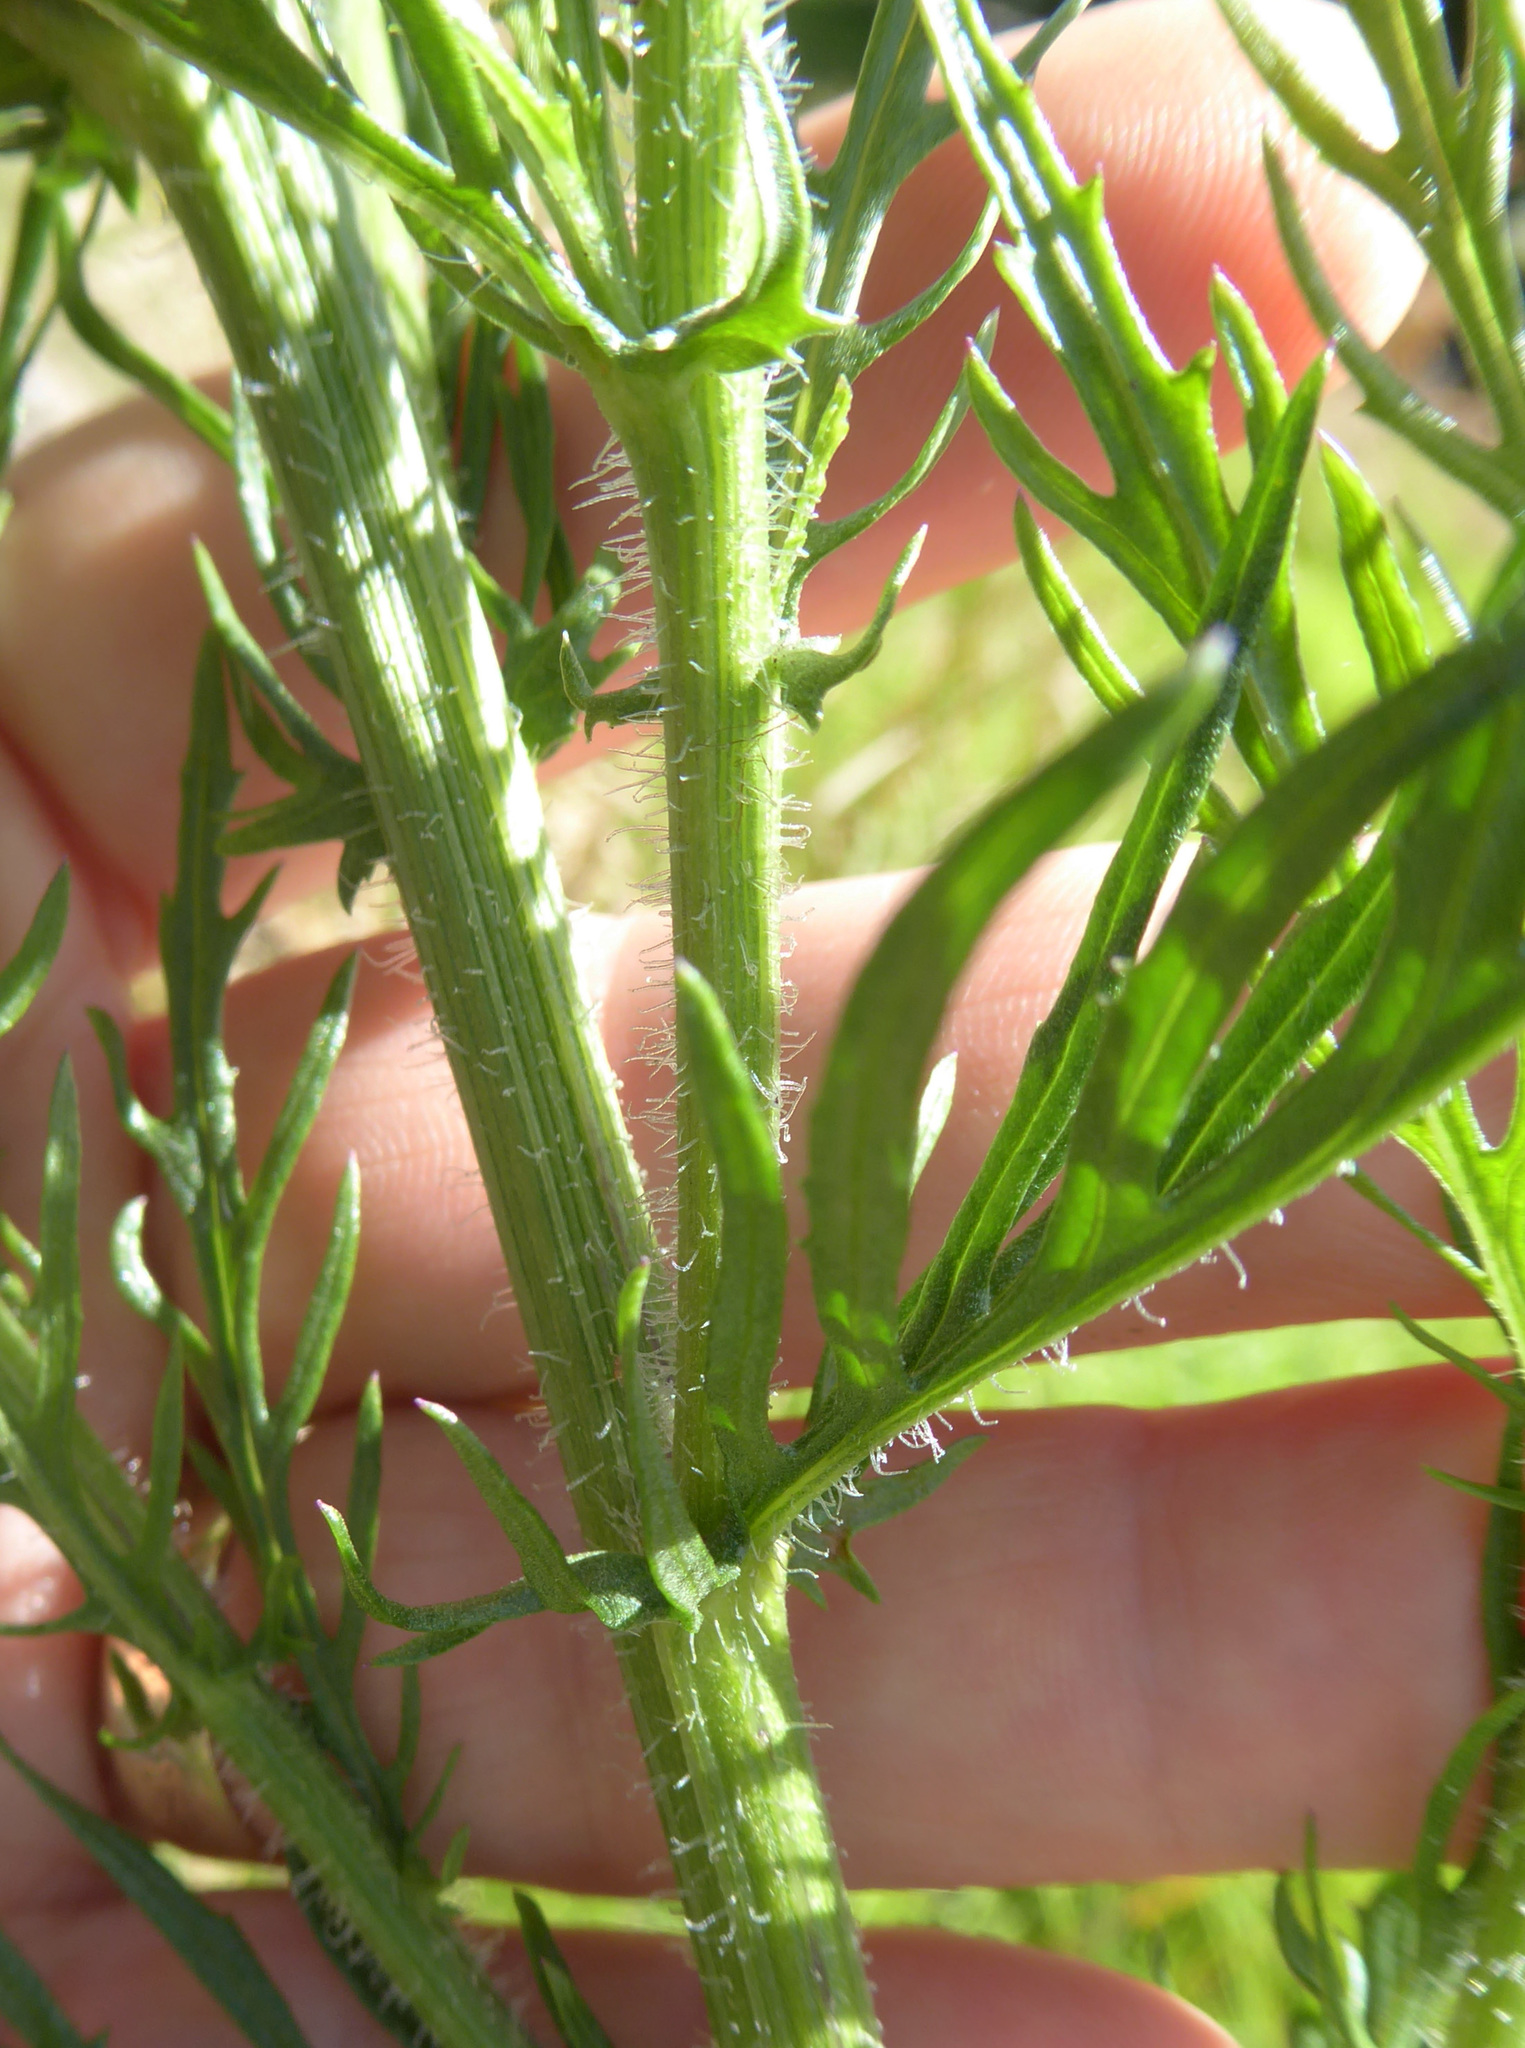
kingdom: Plantae
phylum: Tracheophyta
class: Magnoliopsida
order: Asterales
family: Asteraceae
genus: Senecio
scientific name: Senecio esleri
